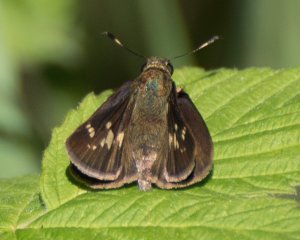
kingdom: Animalia
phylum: Arthropoda
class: Insecta
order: Lepidoptera
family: Hesperiidae
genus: Vernia
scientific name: Vernia verna
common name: Little Glassywing
